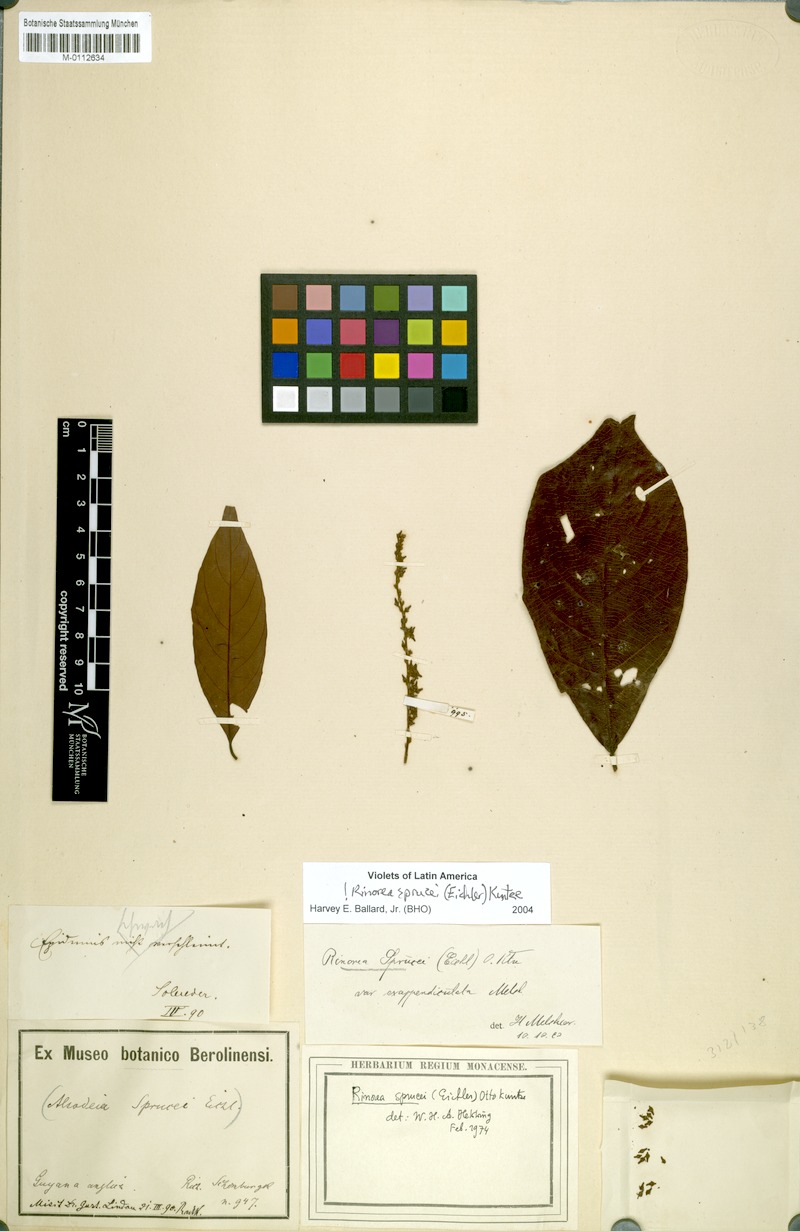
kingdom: Plantae
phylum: Tracheophyta
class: Magnoliopsida
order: Malpighiales
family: Violaceae
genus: Rinorea
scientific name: Rinorea sprucei
